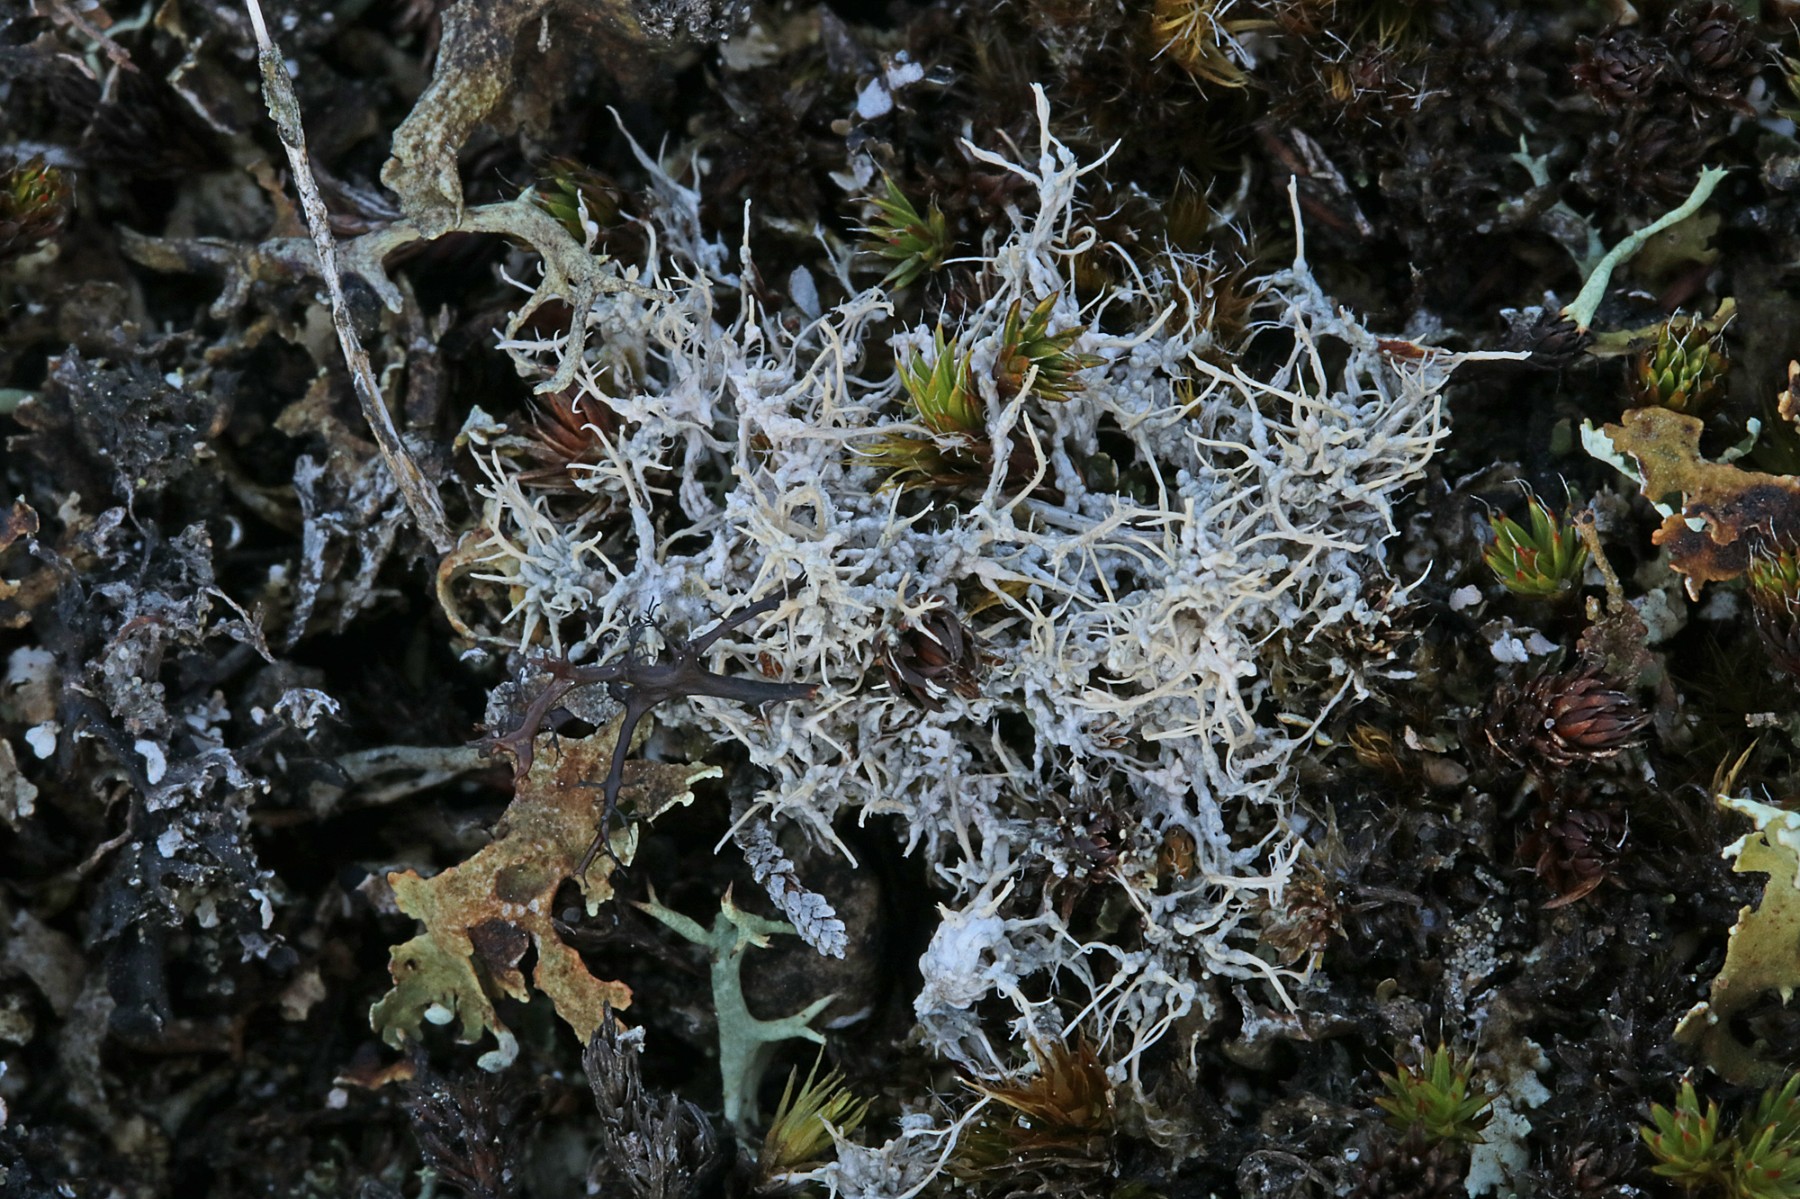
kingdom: Fungi
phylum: Ascomycota
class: Lecanoromycetes
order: Pertusariales
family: Ochrolechiaceae
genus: Ochrolechia
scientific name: Ochrolechia frigida
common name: fjeld-blegskivelav
